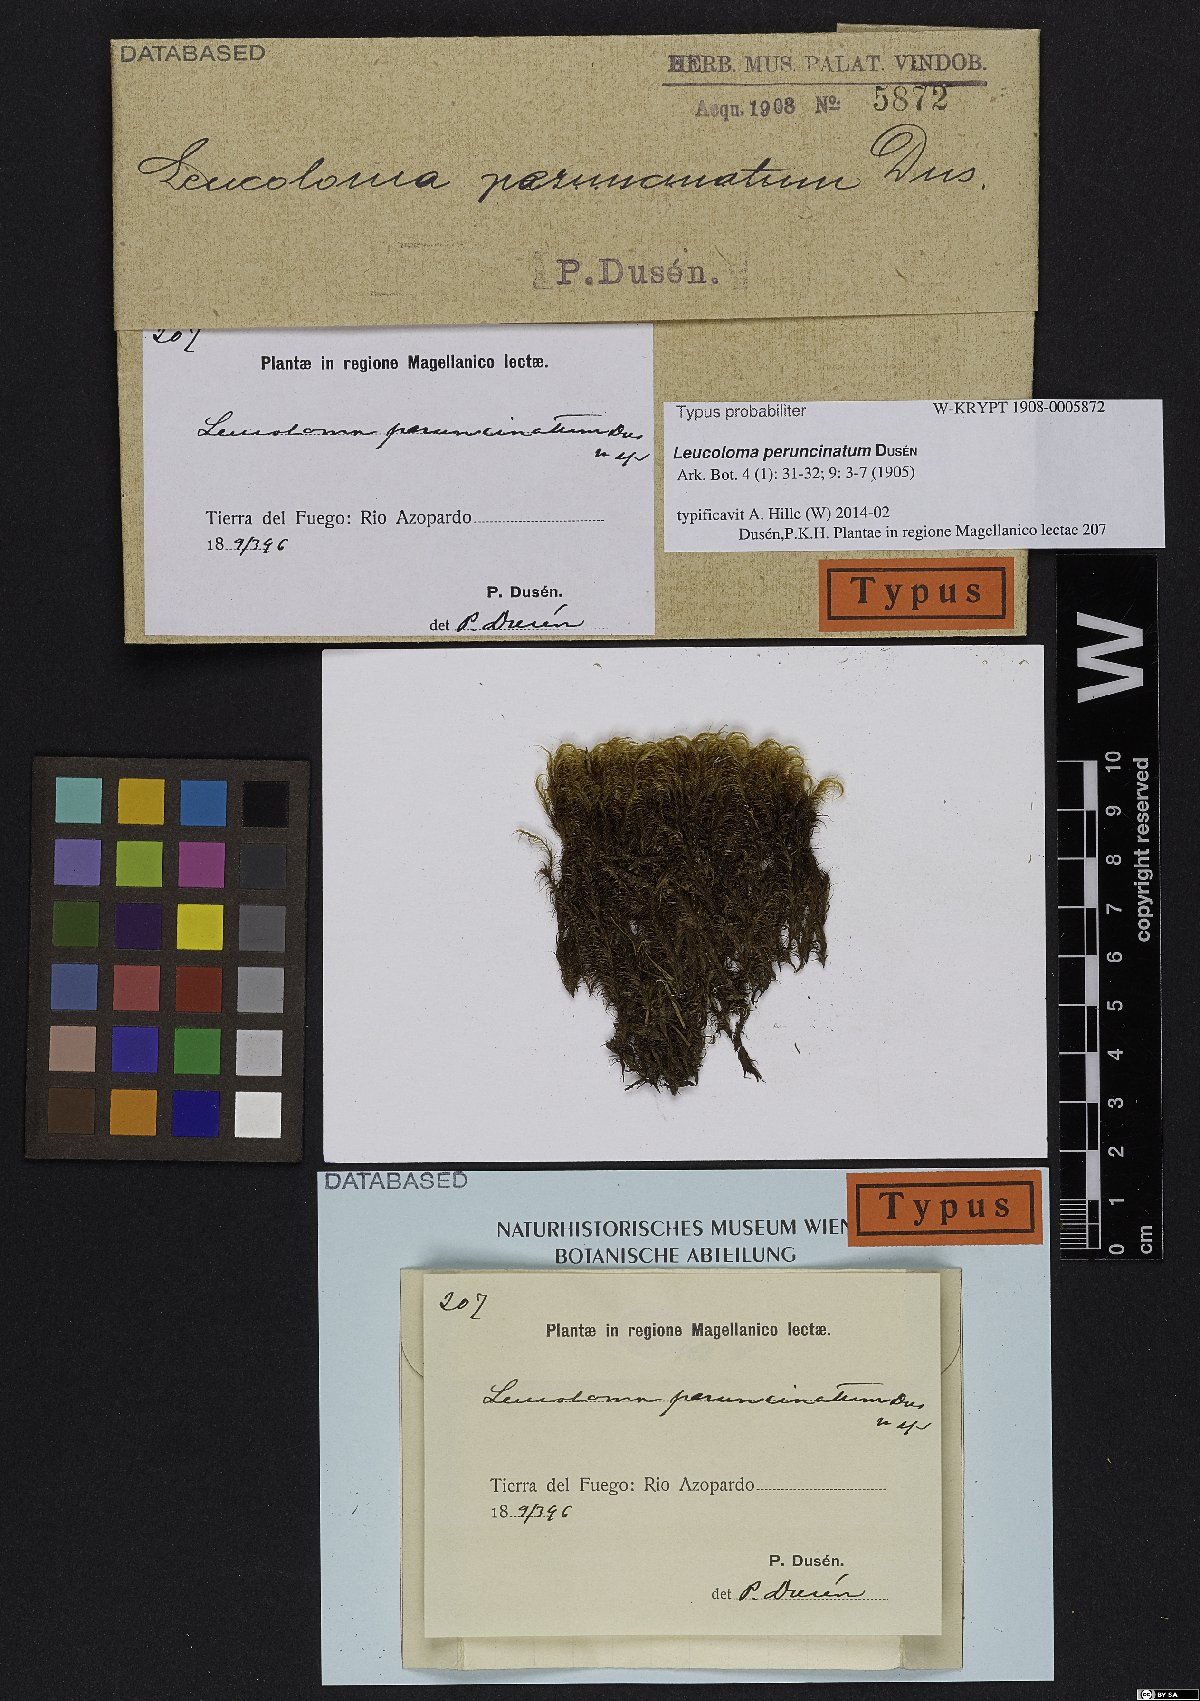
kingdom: Plantae
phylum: Bryophyta
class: Bryopsida
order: Dicranales
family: Dicranaceae
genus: Dicranoloma
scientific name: Dicranoloma chilense
